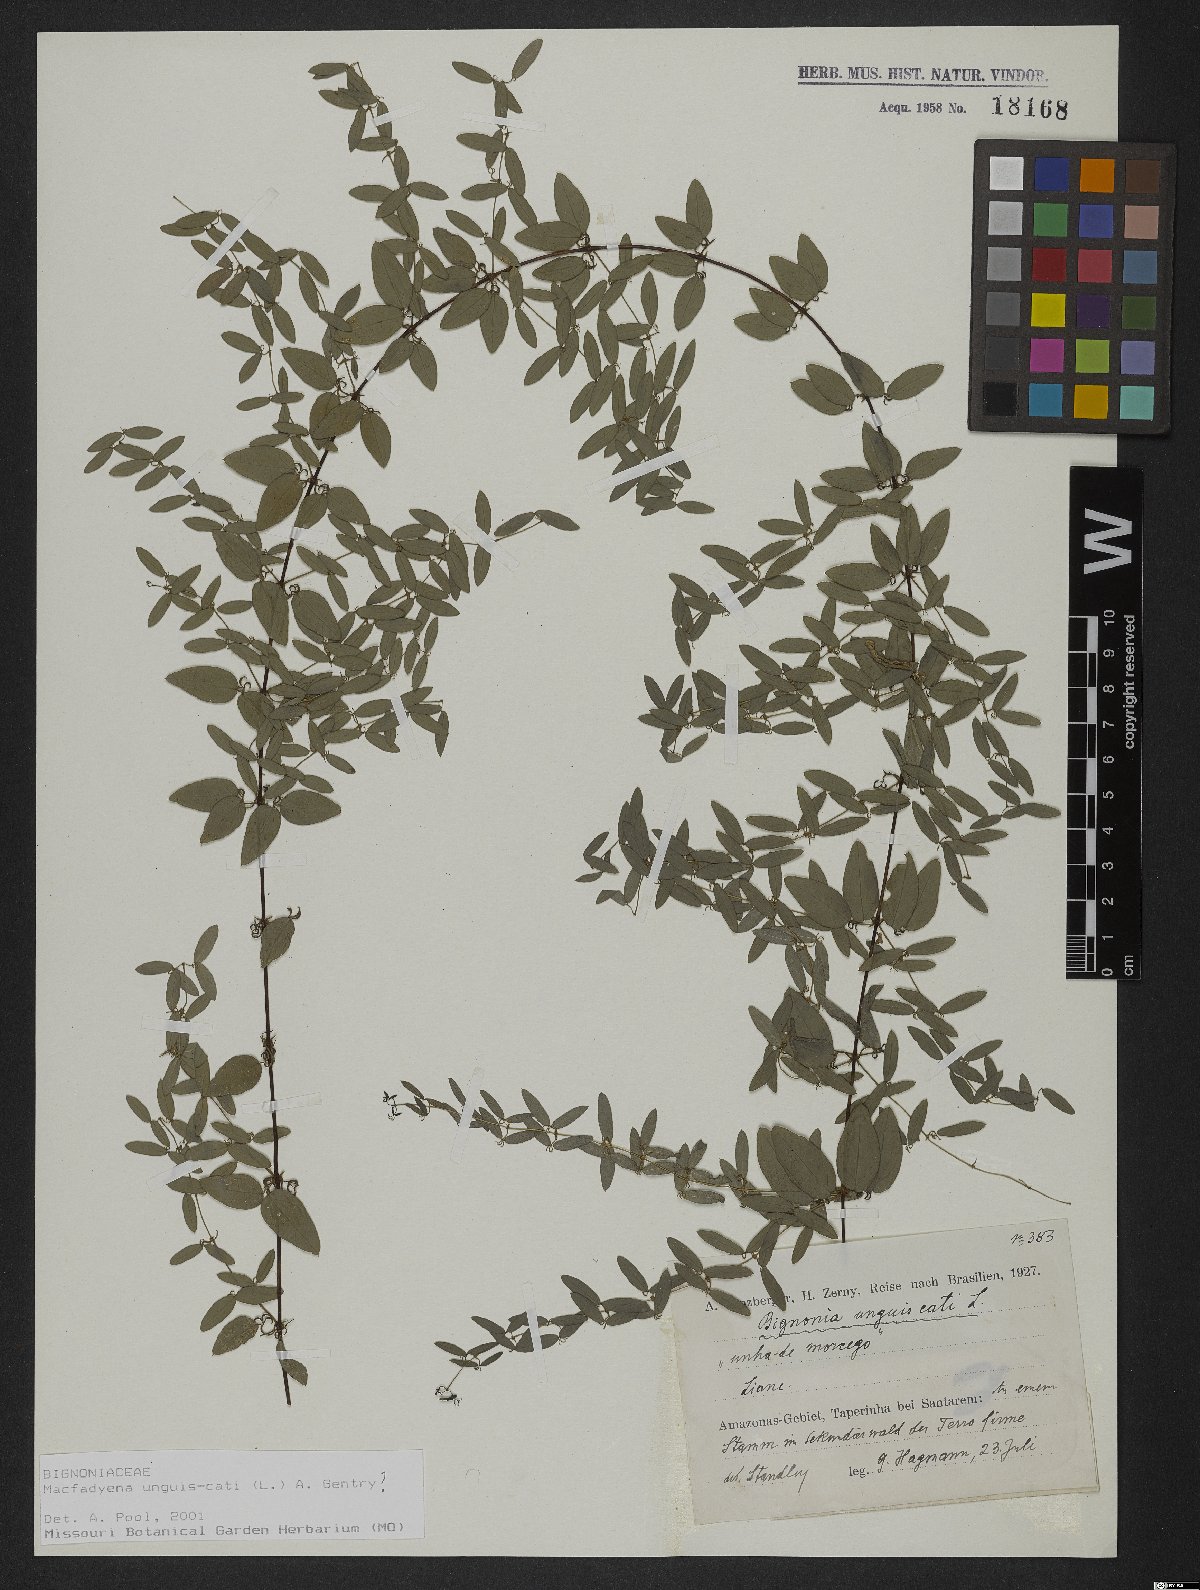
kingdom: Plantae
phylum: Tracheophyta
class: Magnoliopsida
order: Lamiales
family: Bignoniaceae
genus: Dolichandra
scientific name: Dolichandra unguis-cati
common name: Catclaw vine
